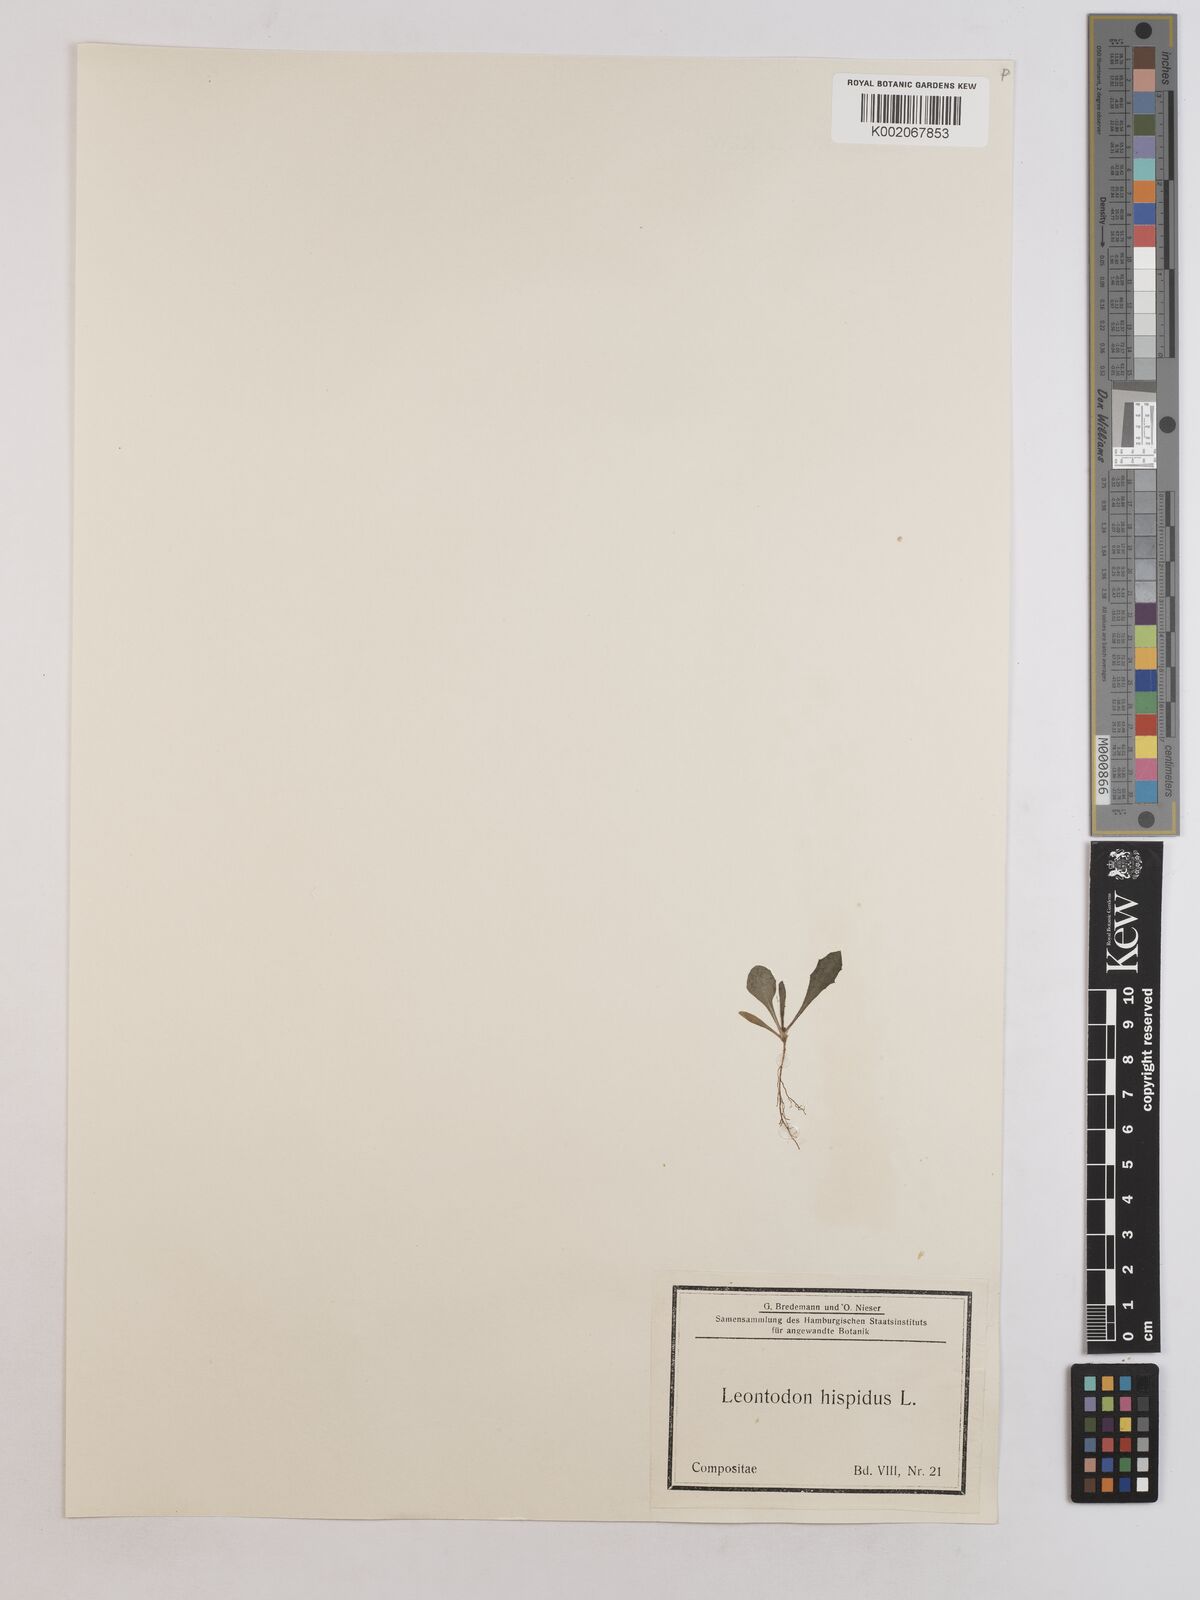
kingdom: Plantae
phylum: Tracheophyta
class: Magnoliopsida
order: Asterales
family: Asteraceae
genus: Leontodon
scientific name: Leontodon crispus
